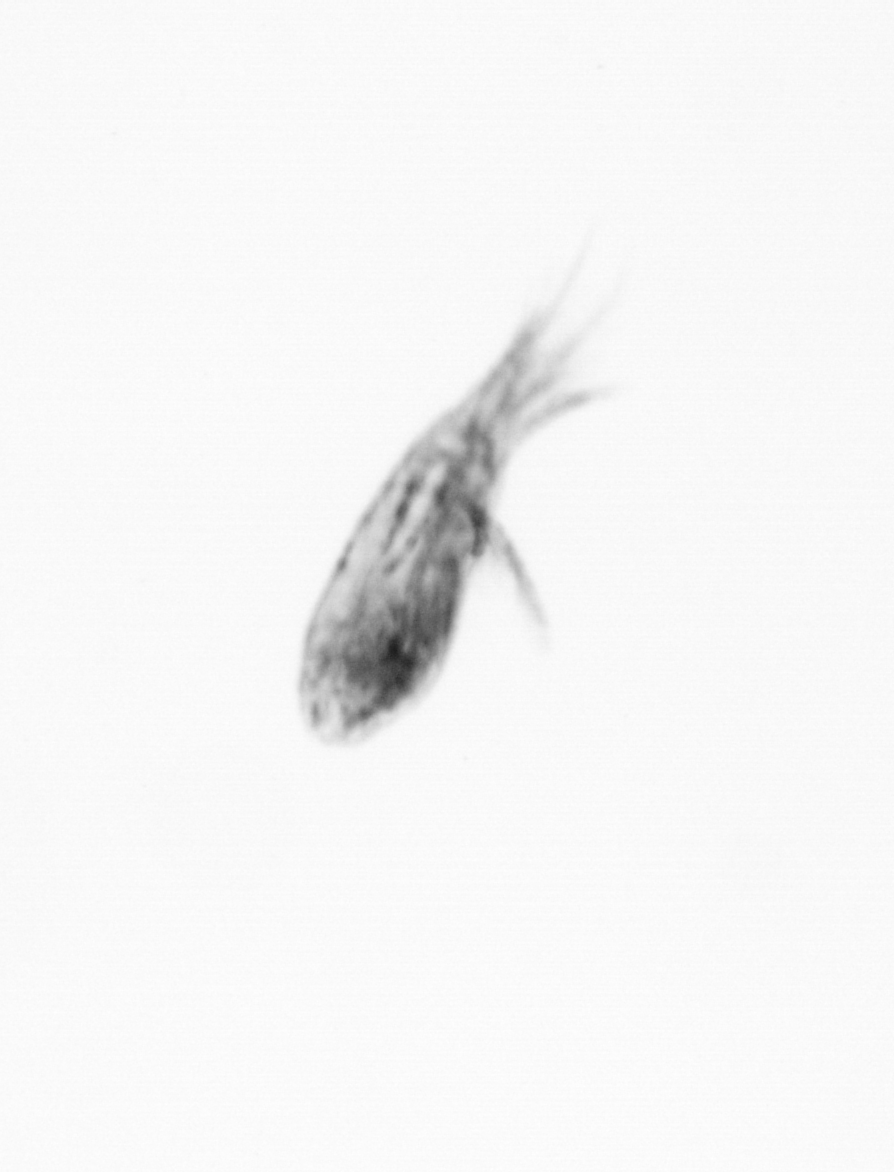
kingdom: Animalia
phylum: Arthropoda
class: Copepoda
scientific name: Copepoda
